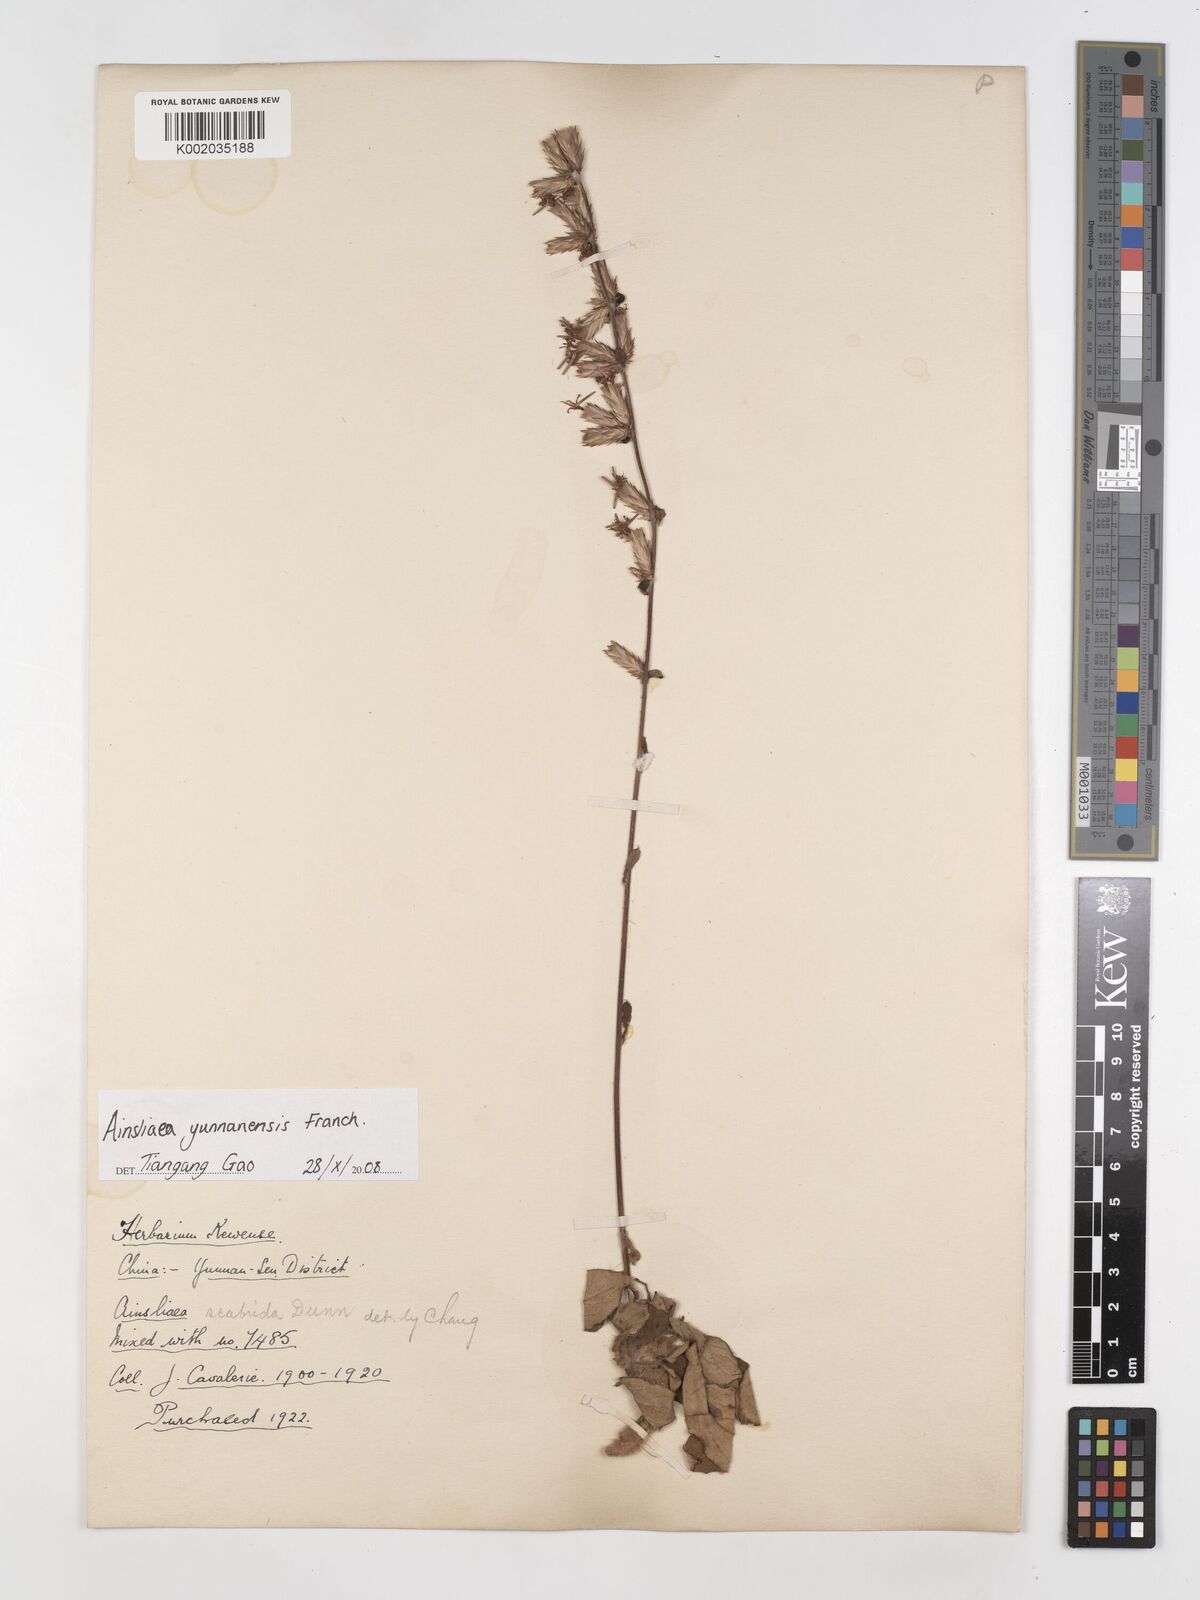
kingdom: Plantae
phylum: Tracheophyta
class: Magnoliopsida
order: Asterales
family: Asteraceae
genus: Ainsliaea
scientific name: Ainsliaea yunnanensis
